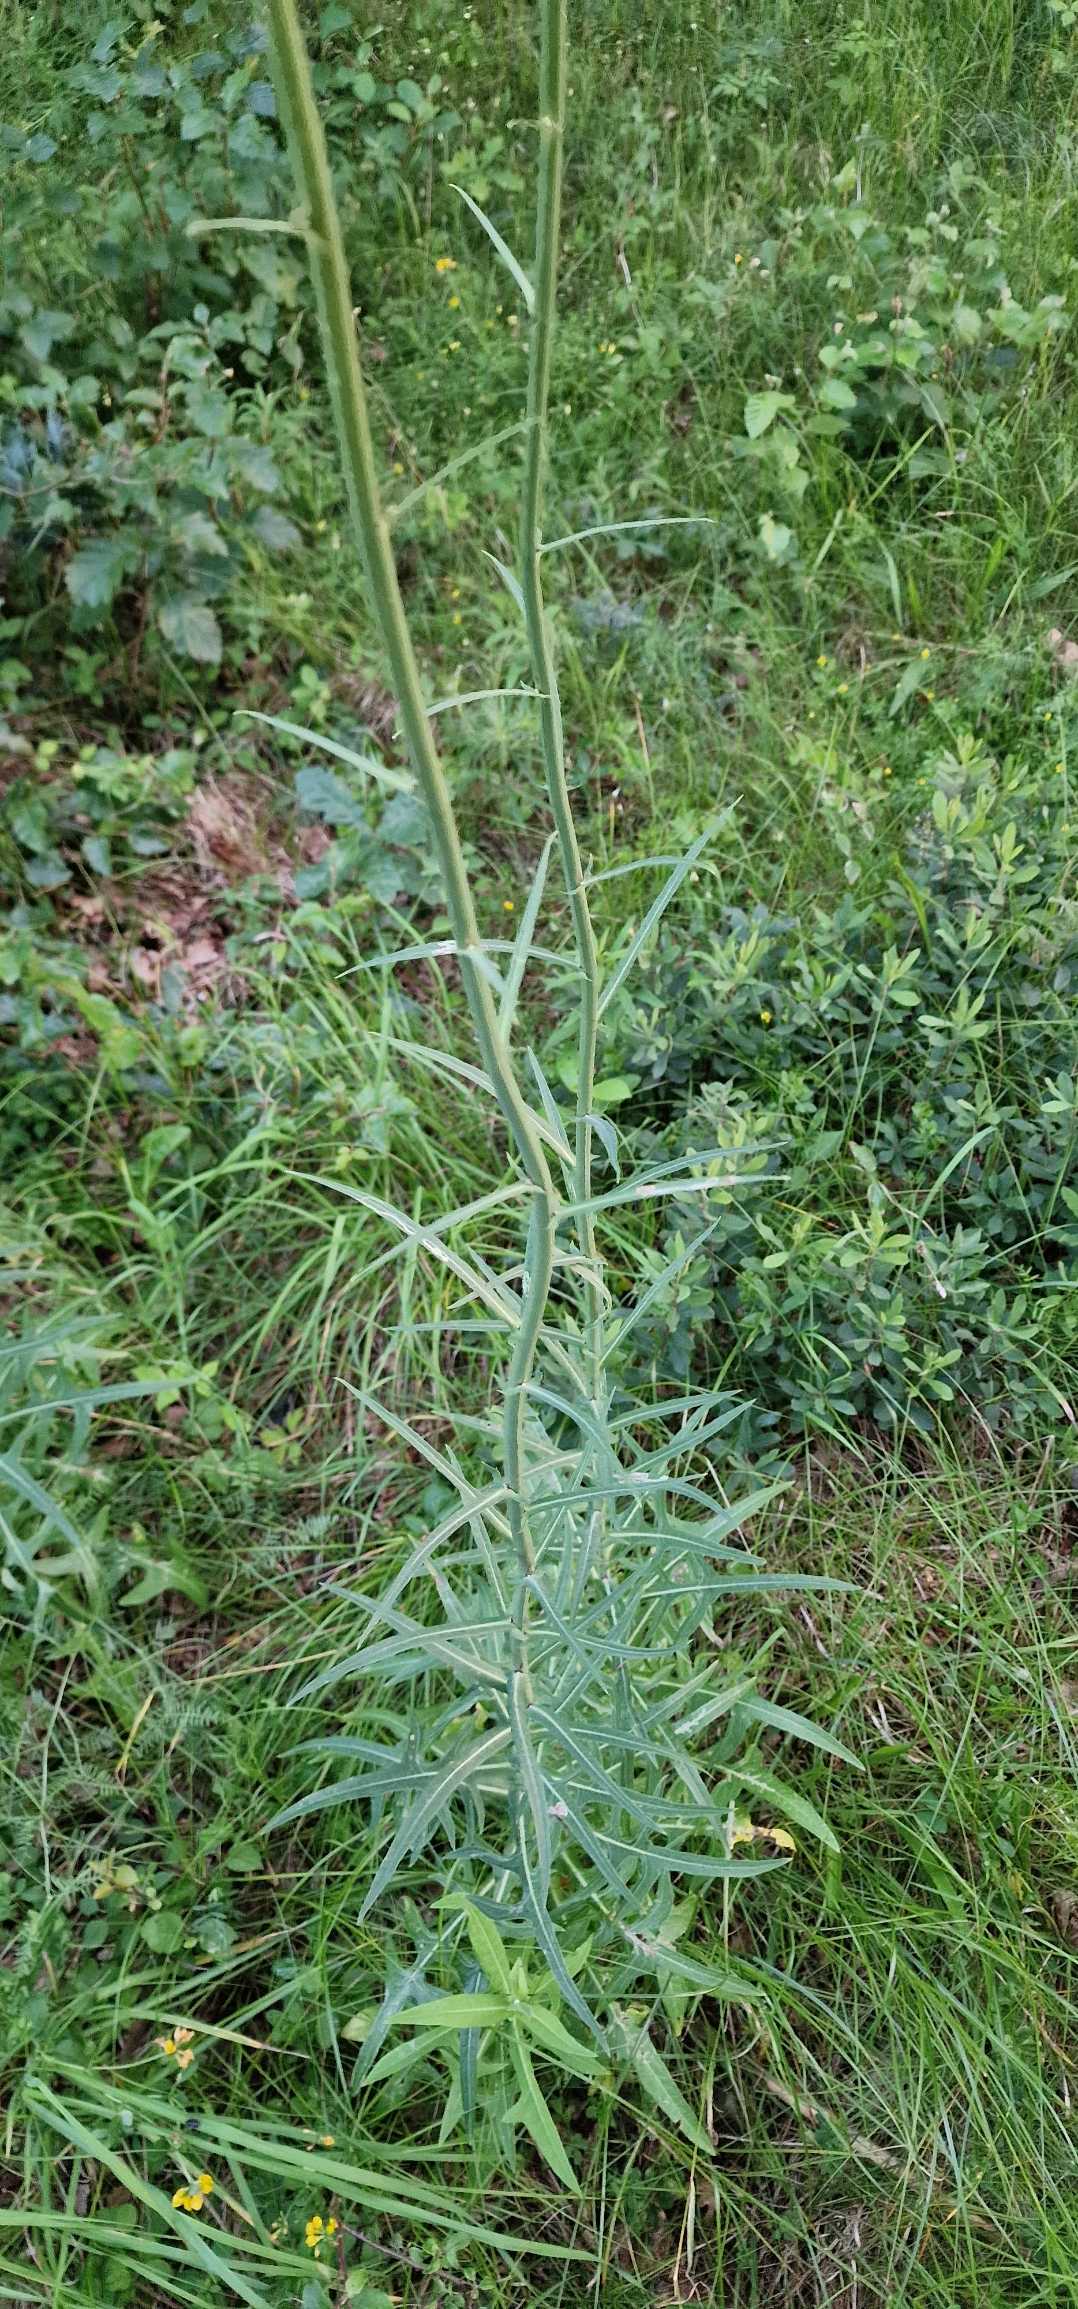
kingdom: Plantae
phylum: Tracheophyta
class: Magnoliopsida
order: Asterales
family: Asteraceae
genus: Sonchus
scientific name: Sonchus palustris
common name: Kær-svinemælk
